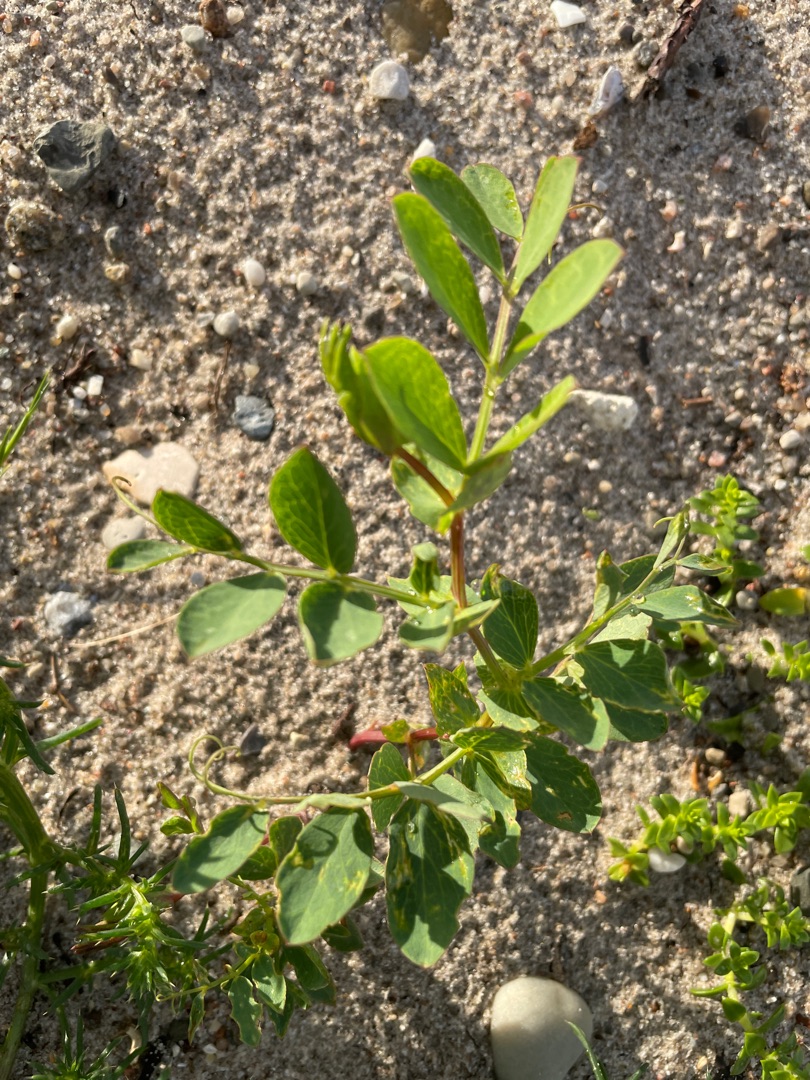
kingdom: Plantae
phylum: Tracheophyta
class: Magnoliopsida
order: Fabales
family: Fabaceae
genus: Lathyrus
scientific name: Lathyrus japonicus
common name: Strand-fladbælg
